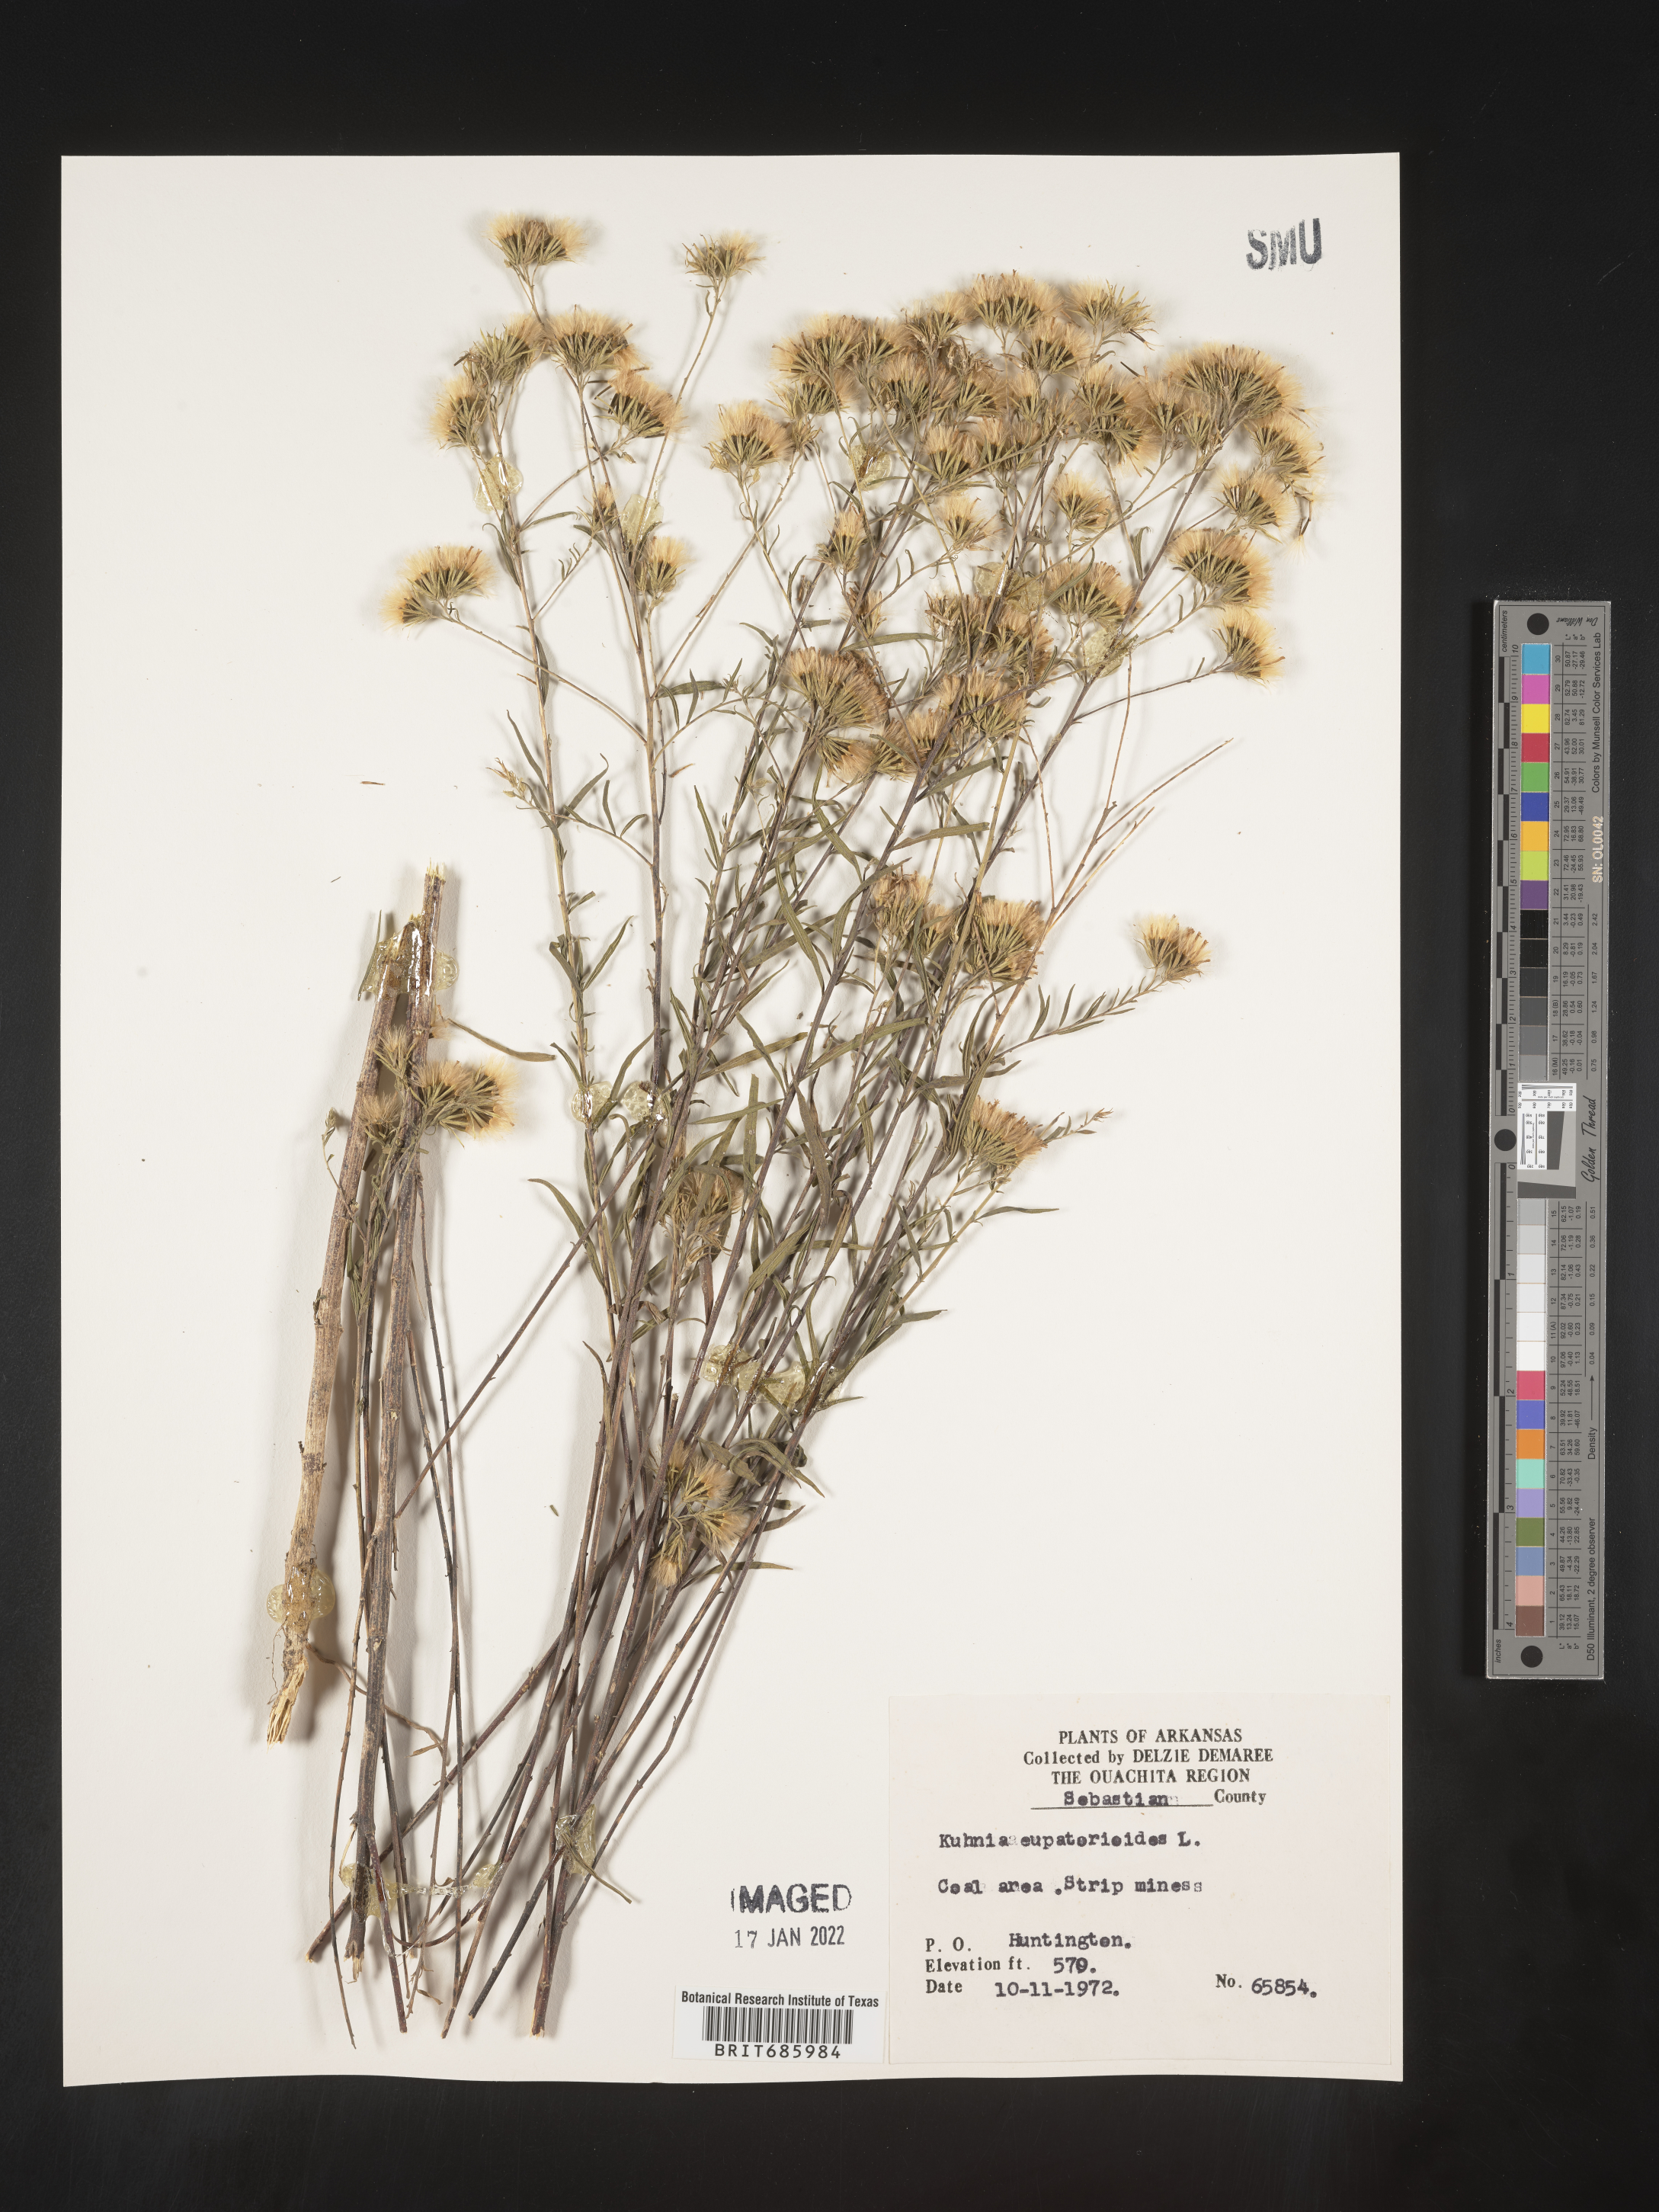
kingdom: Plantae
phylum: Tracheophyta
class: Magnoliopsida
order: Asterales
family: Asteraceae
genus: Brickellia
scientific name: Brickellia eupatorioides
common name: False boneset
